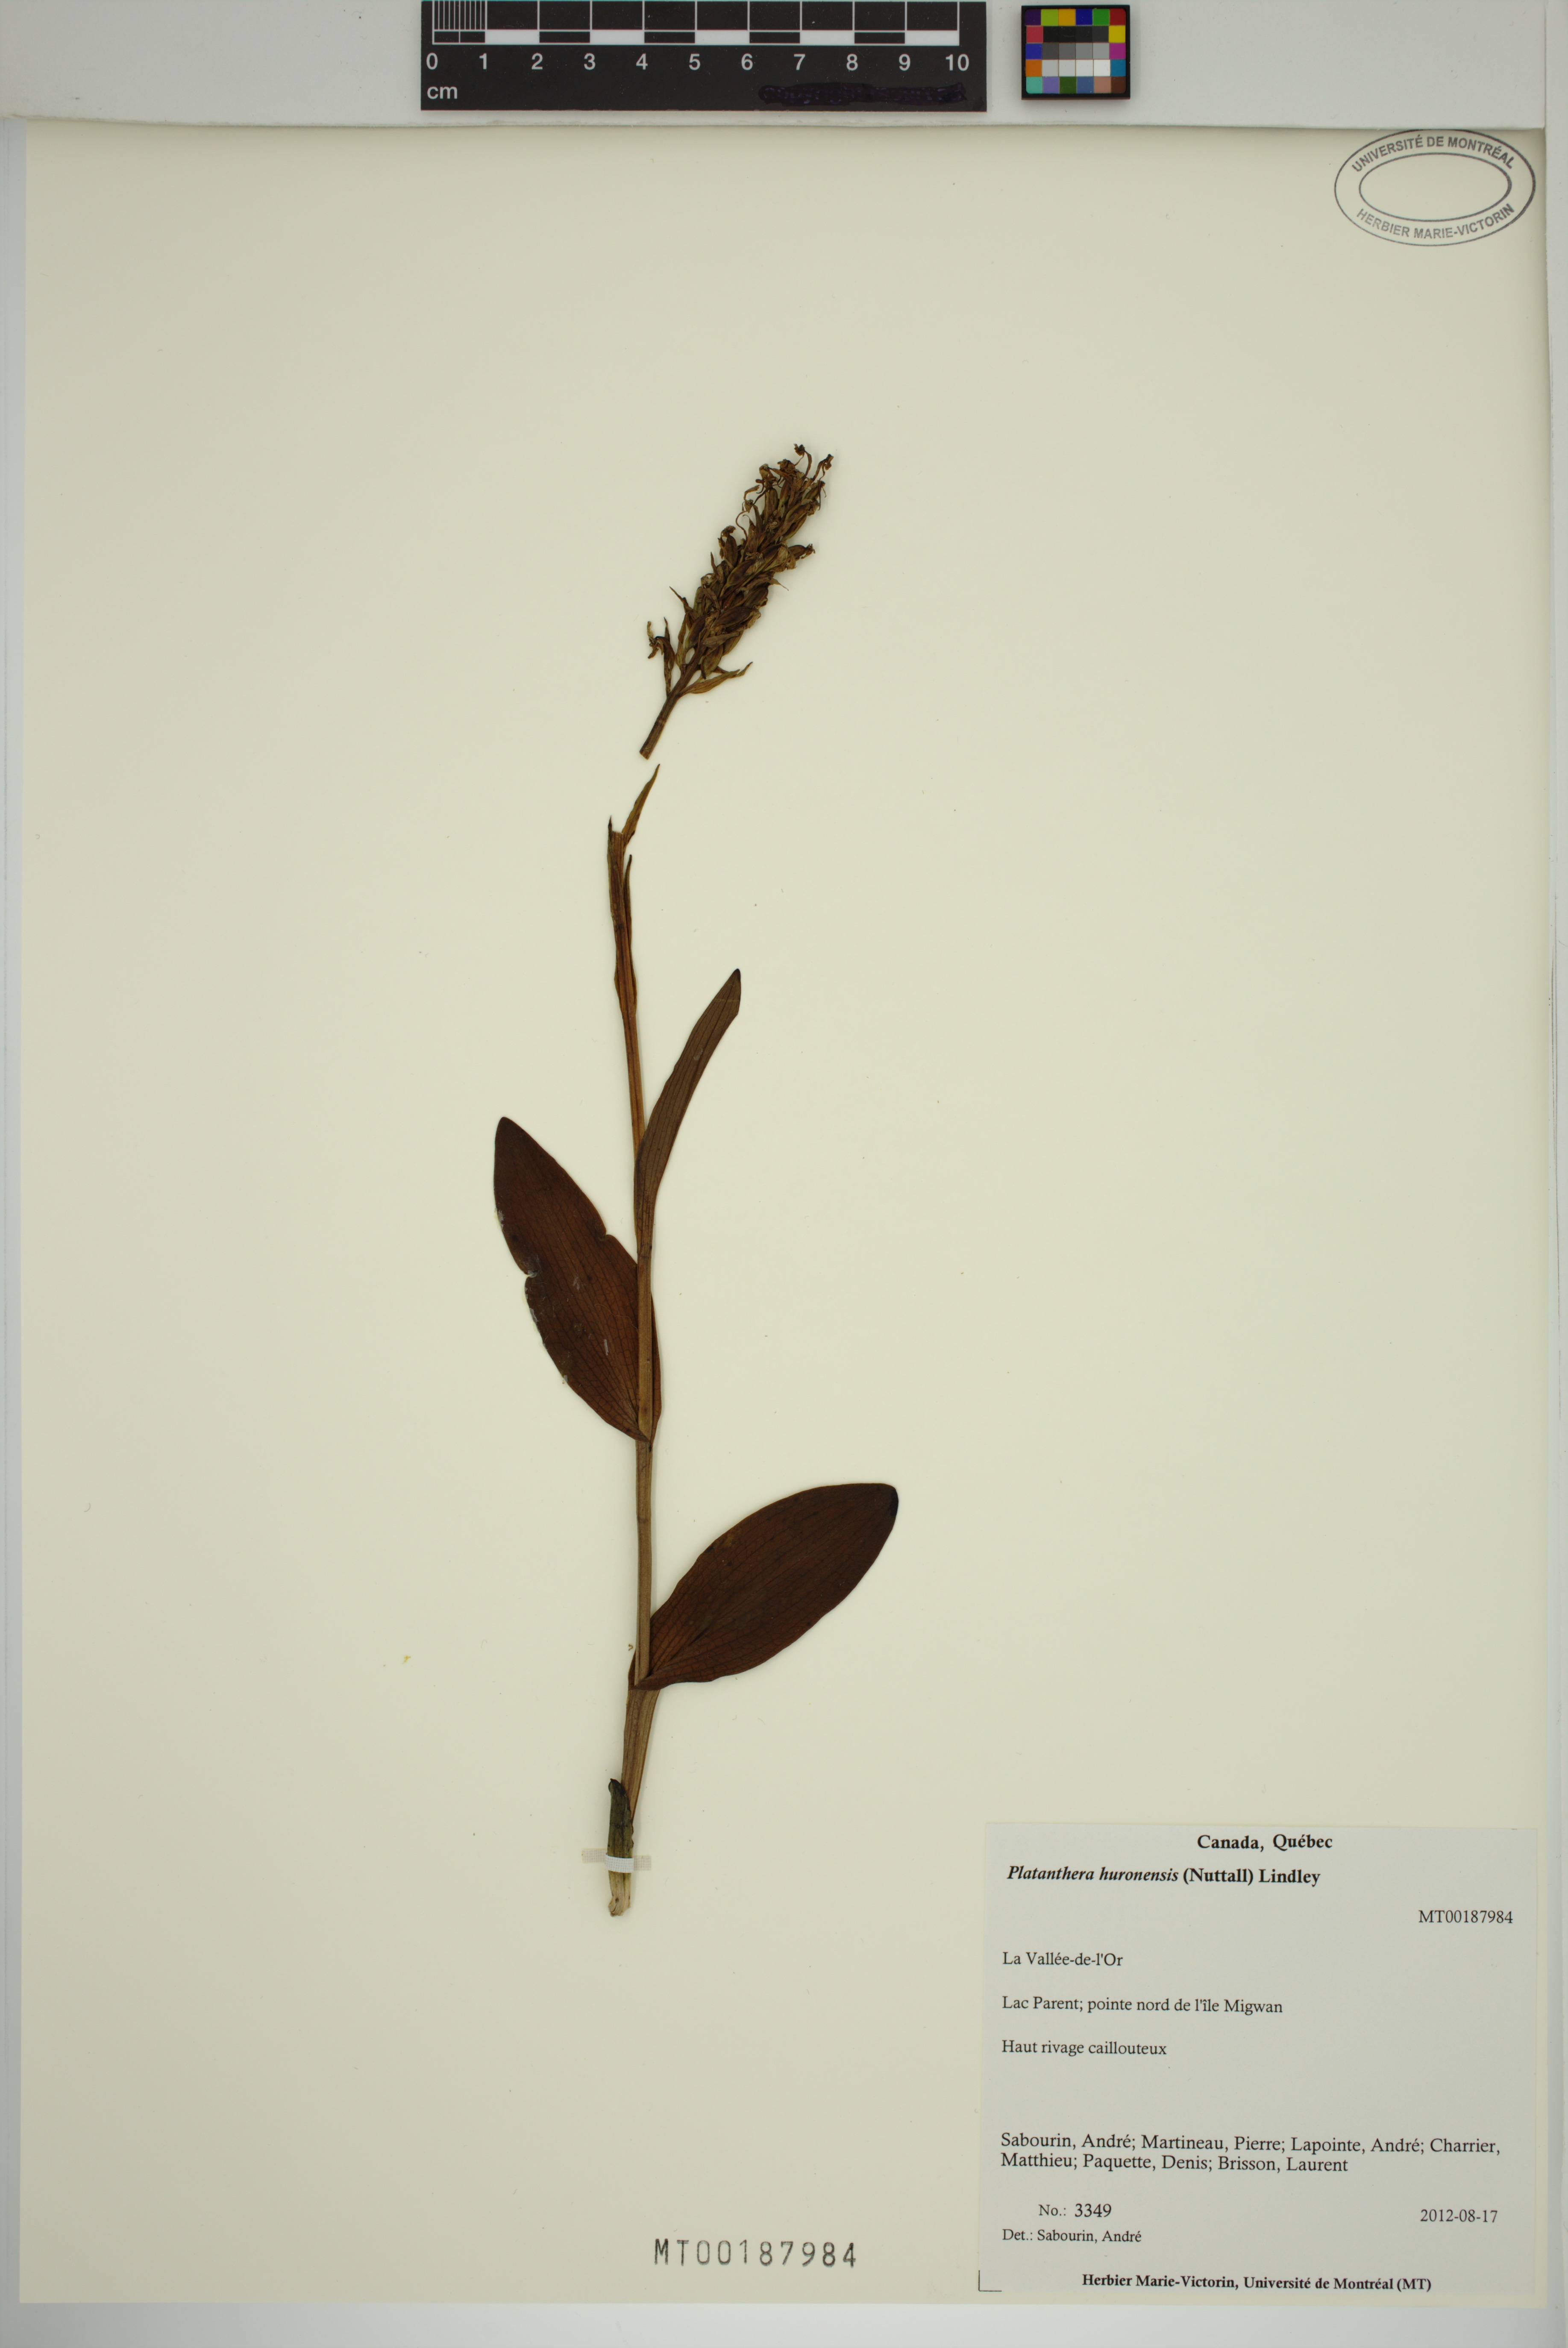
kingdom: Plantae
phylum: Tracheophyta
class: Liliopsida
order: Asparagales
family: Orchidaceae
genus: Platanthera
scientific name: Platanthera huronensis
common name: Fragrant green orchid
